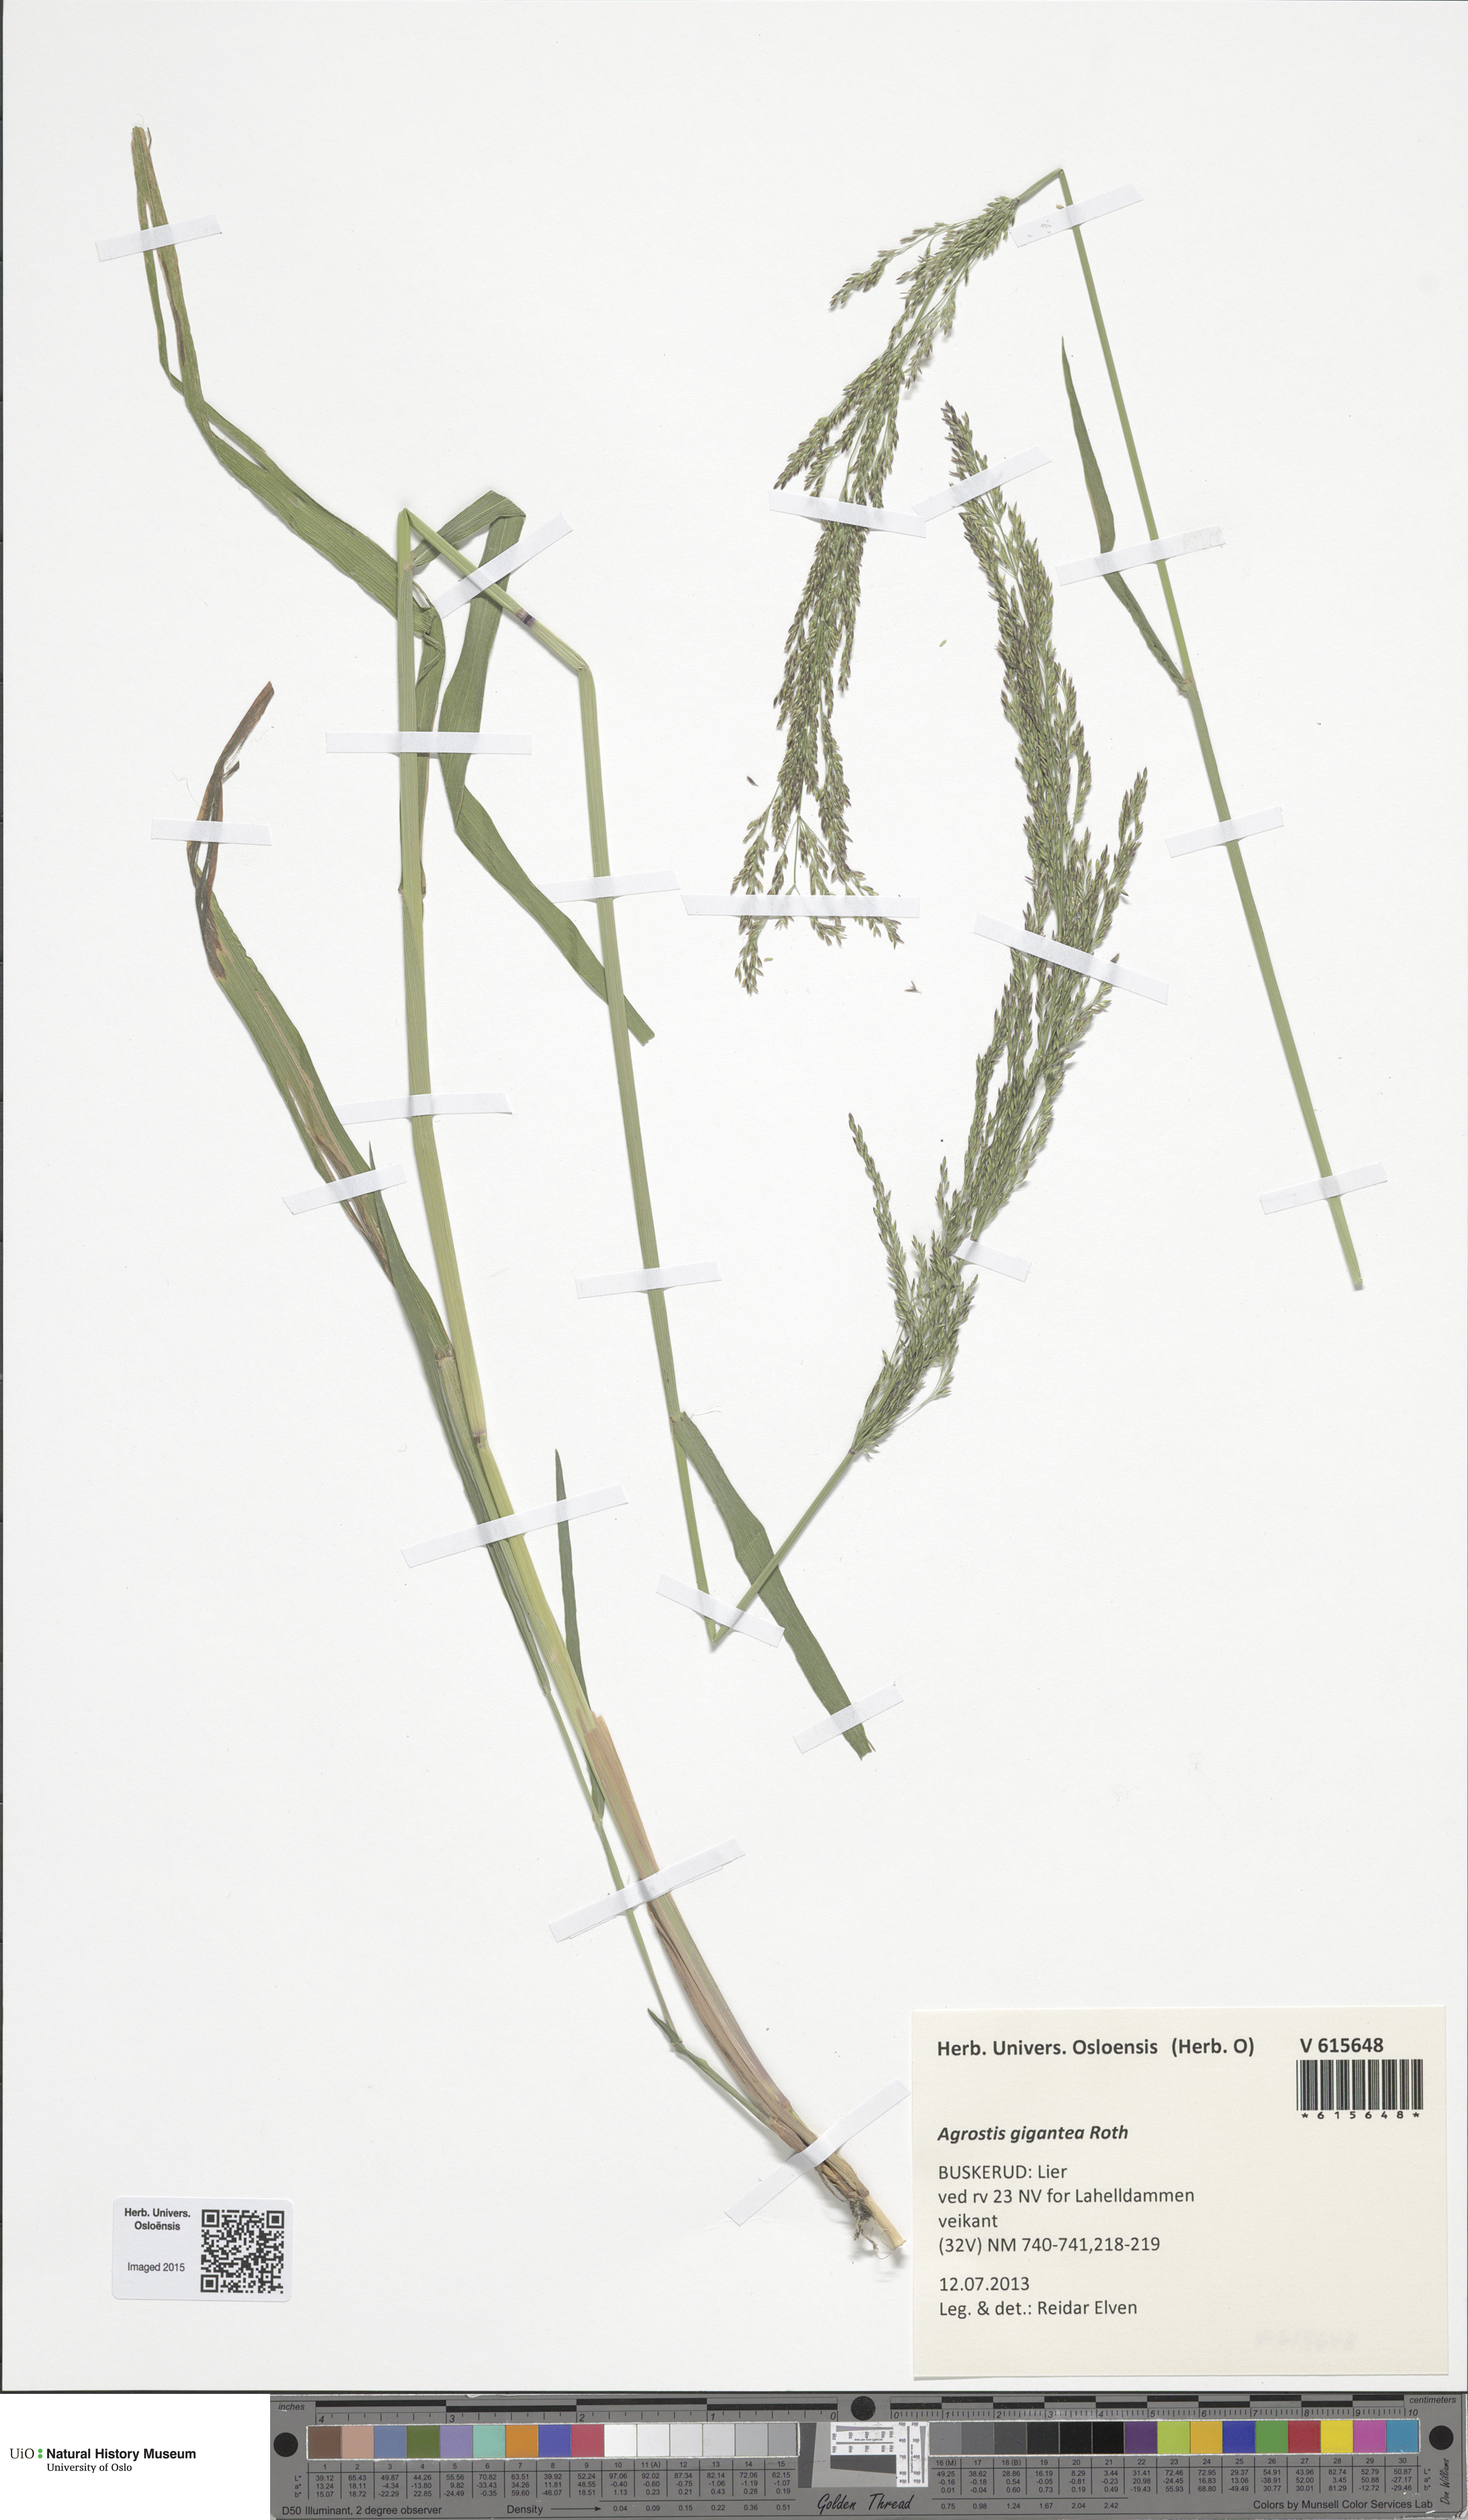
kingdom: Plantae
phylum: Tracheophyta
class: Liliopsida
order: Poales
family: Poaceae
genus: Agrostis
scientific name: Agrostis gigantea
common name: Black bent
